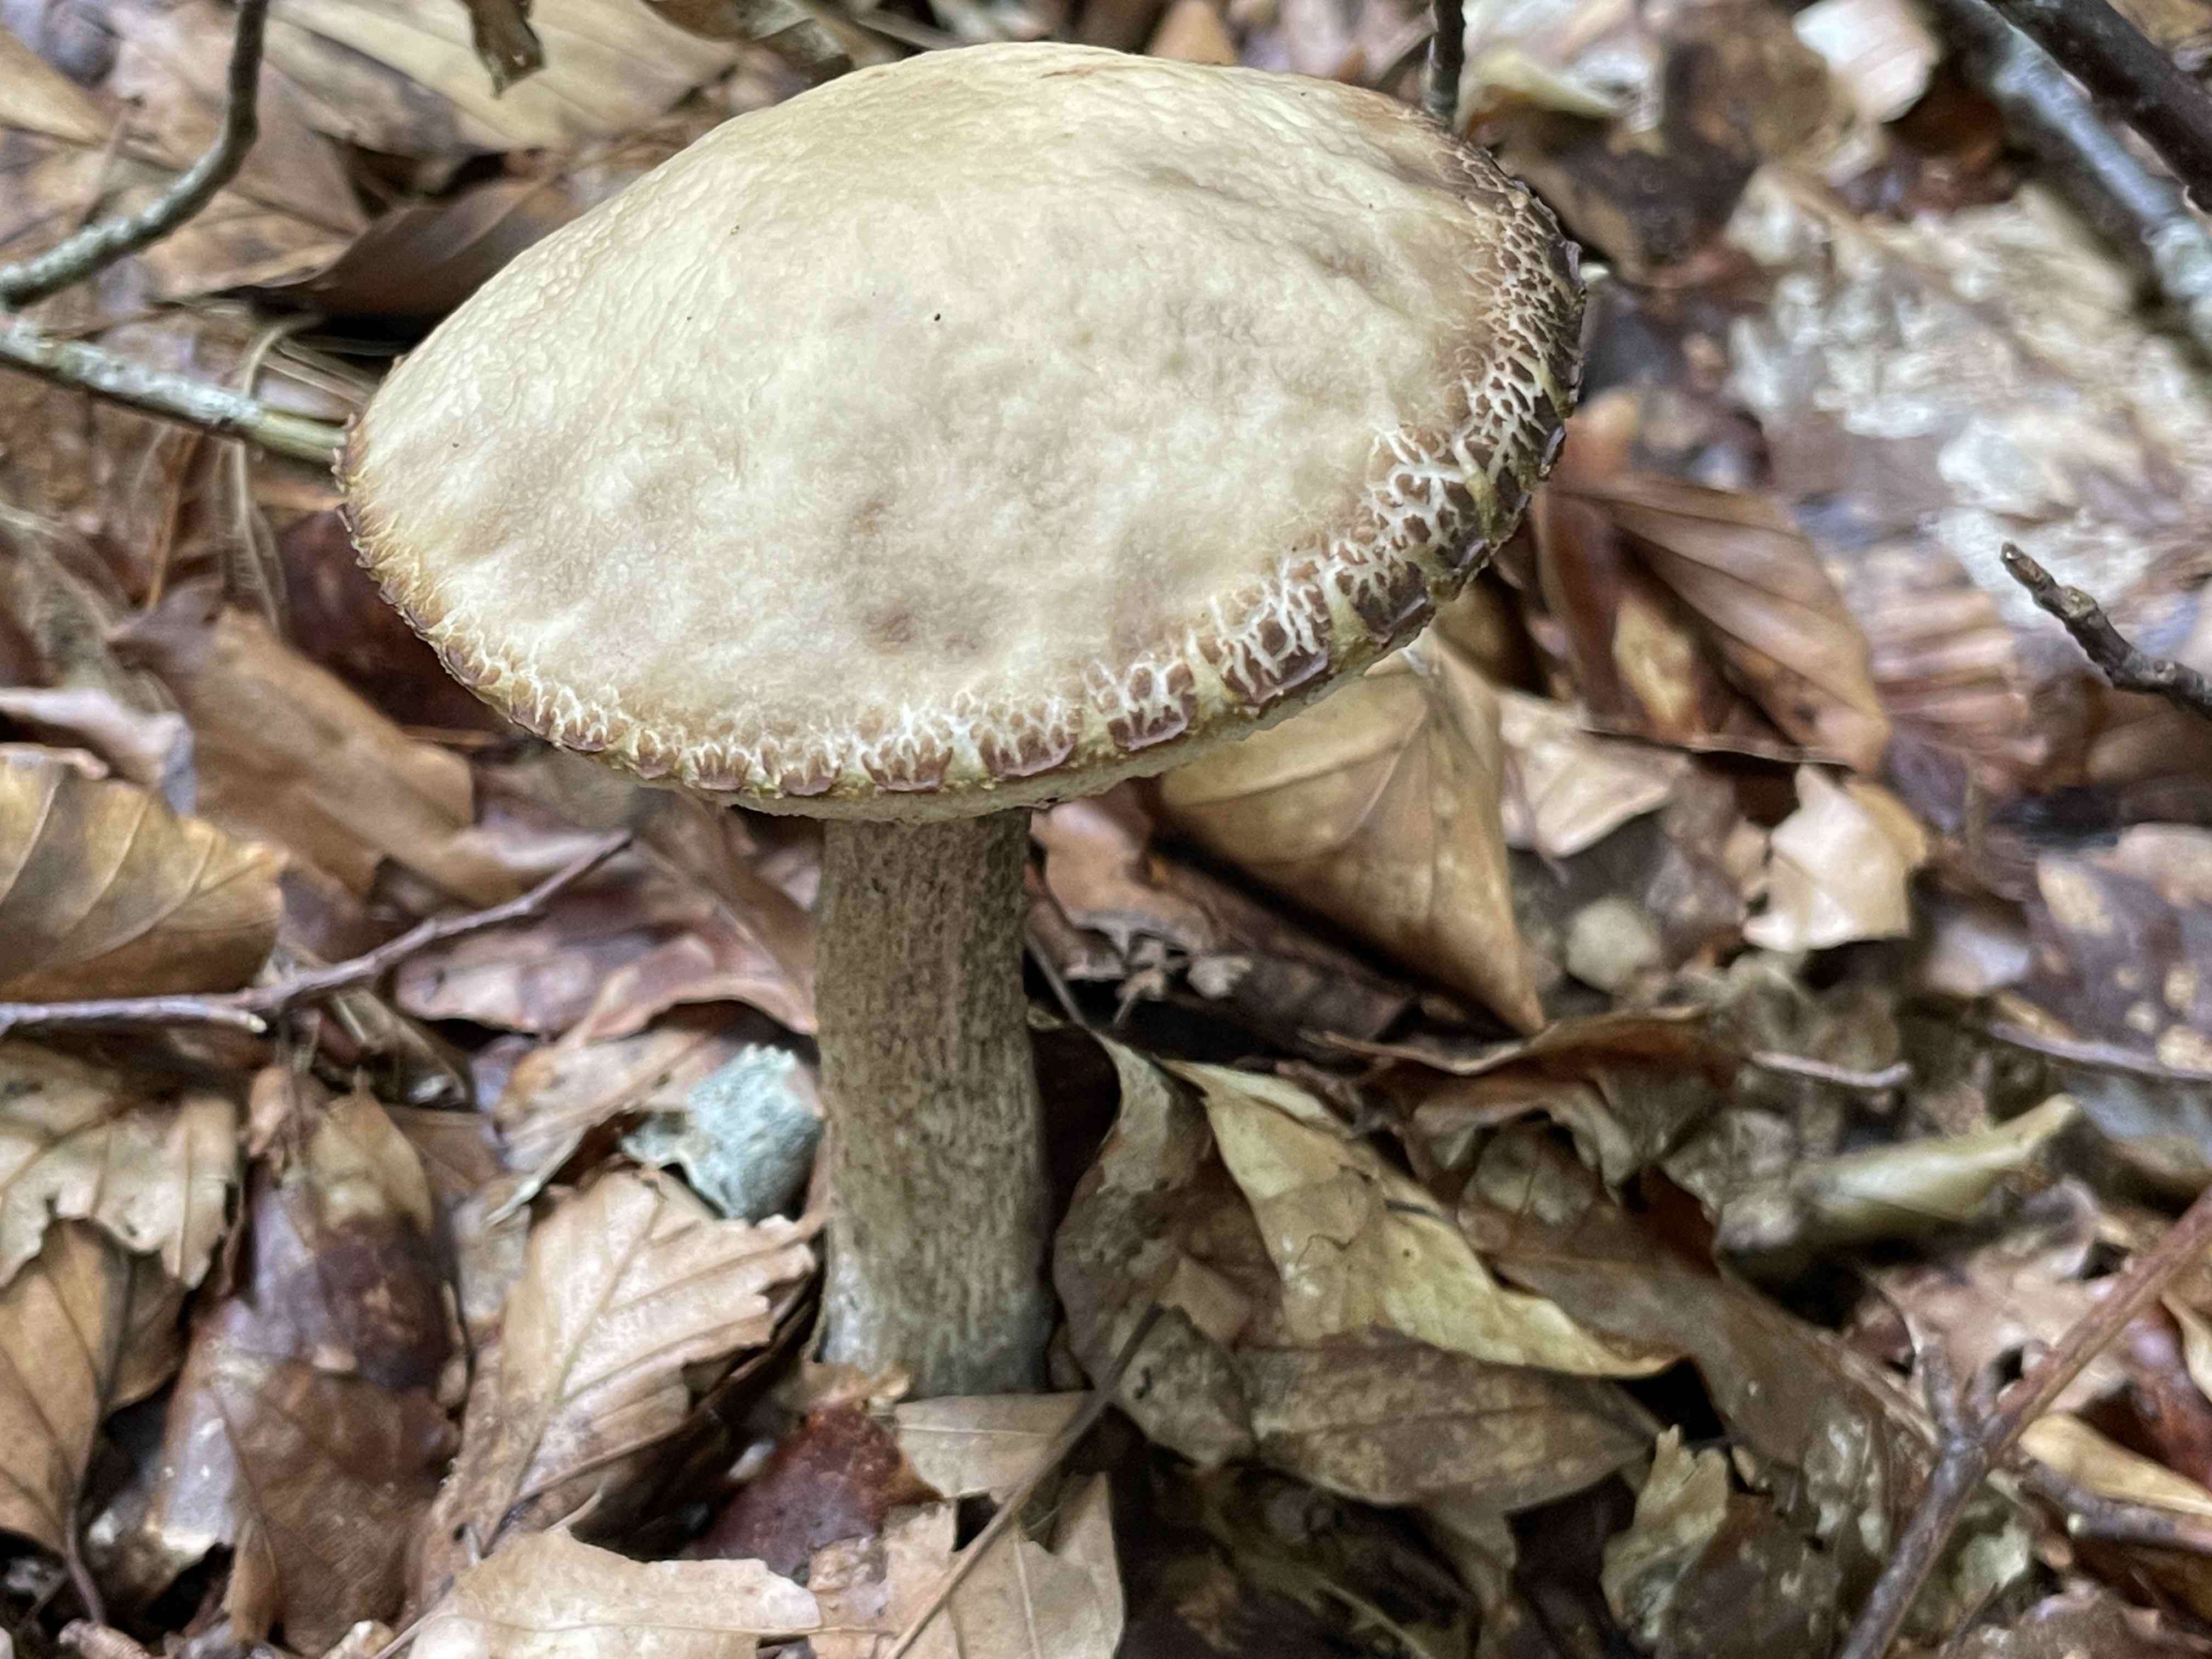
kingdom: Fungi
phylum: Basidiomycota
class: Agaricomycetes
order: Boletales
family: Boletaceae
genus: Leccinellum
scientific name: Leccinellum pseudoscabrum
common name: avnbøg-skælrørhat
